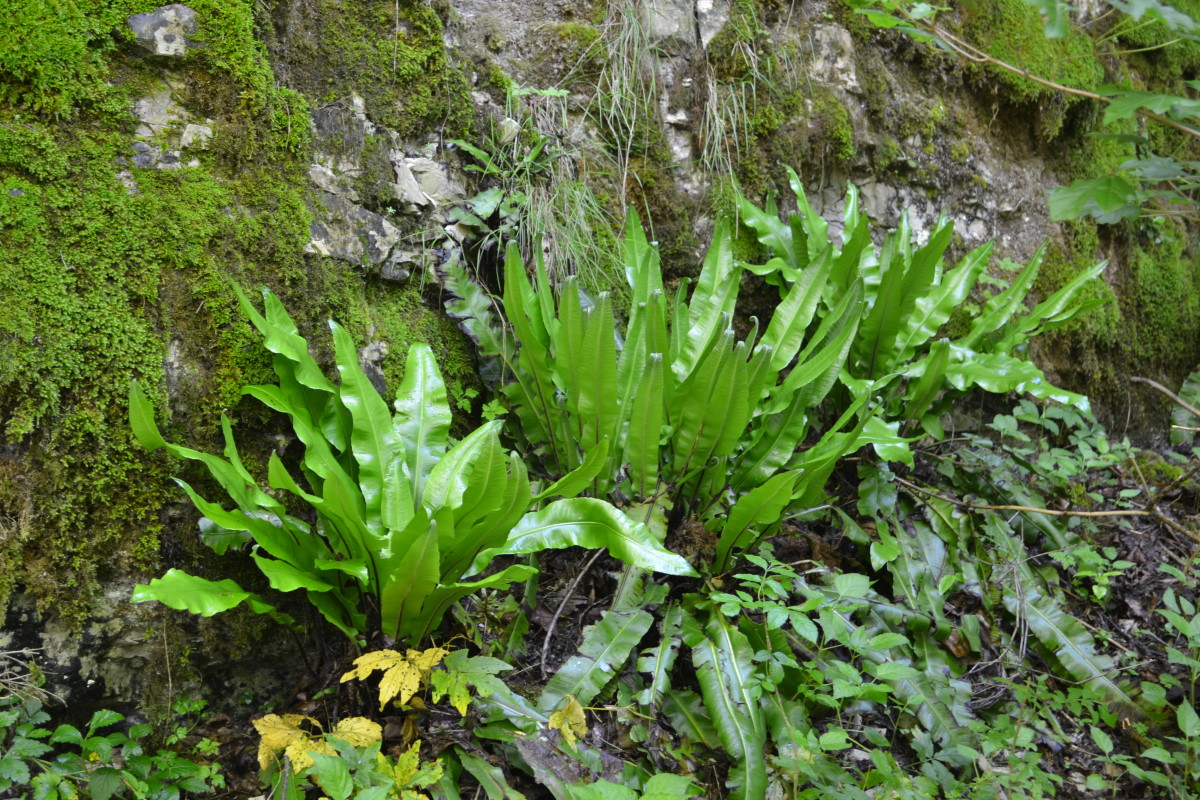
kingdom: Plantae
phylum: Tracheophyta
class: Polypodiopsida
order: Polypodiales
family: Aspleniaceae
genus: Asplenium
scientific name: Asplenium scolopendrium
